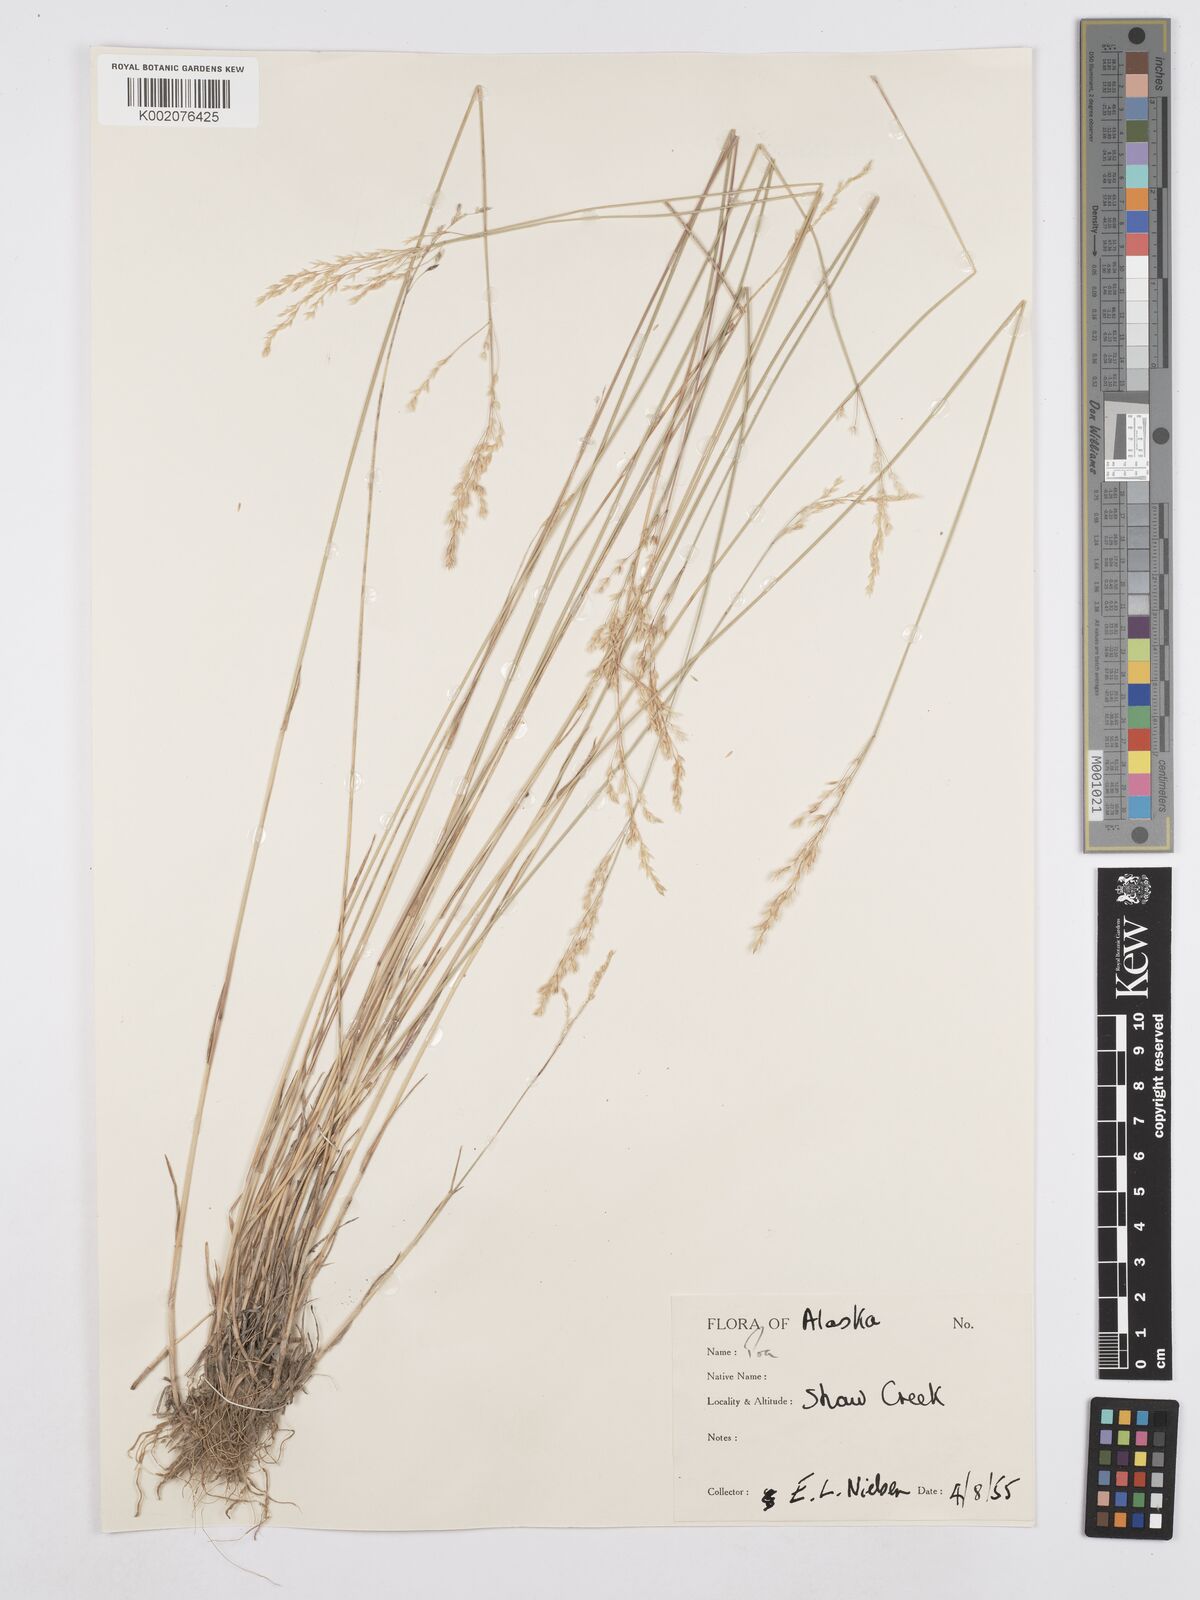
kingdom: Plantae
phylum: Tracheophyta
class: Liliopsida
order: Poales
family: Poaceae
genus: Poa
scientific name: Poa pratensis
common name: Kentucky bluegrass
